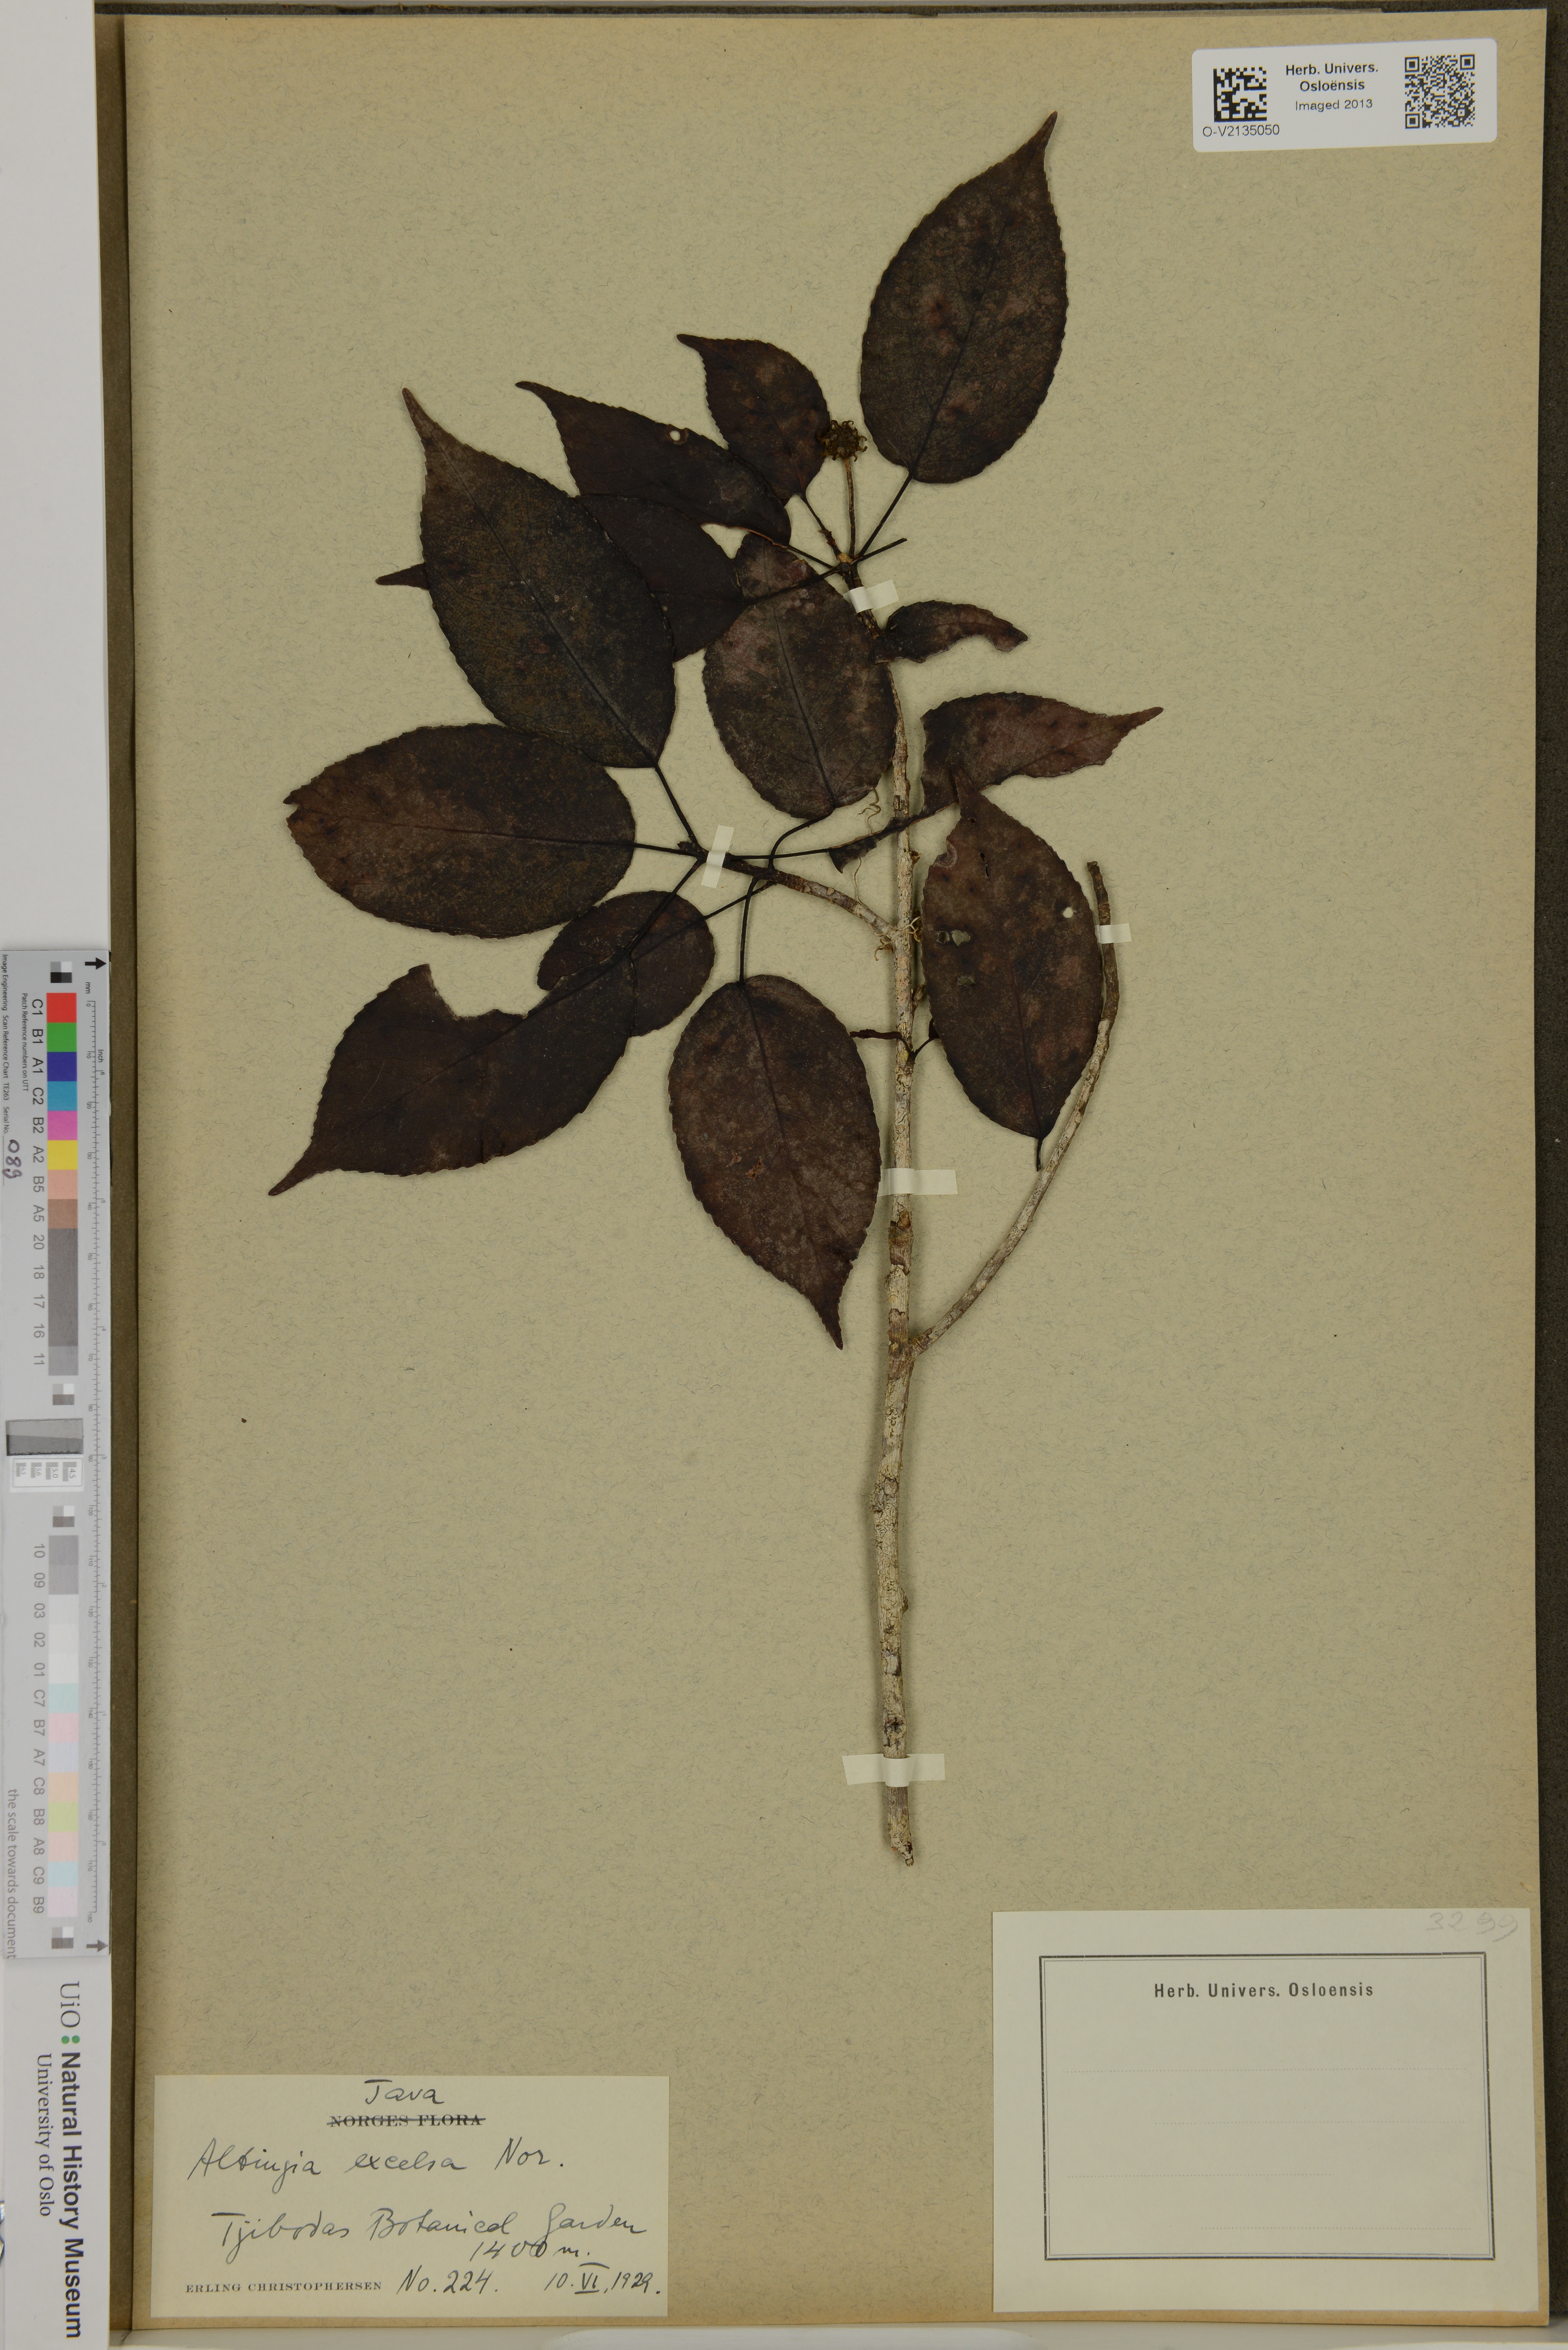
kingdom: Plantae
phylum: Tracheophyta
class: Magnoliopsida
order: Saxifragales
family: Altingiaceae
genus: Liquidambar
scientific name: Liquidambar excelsa
